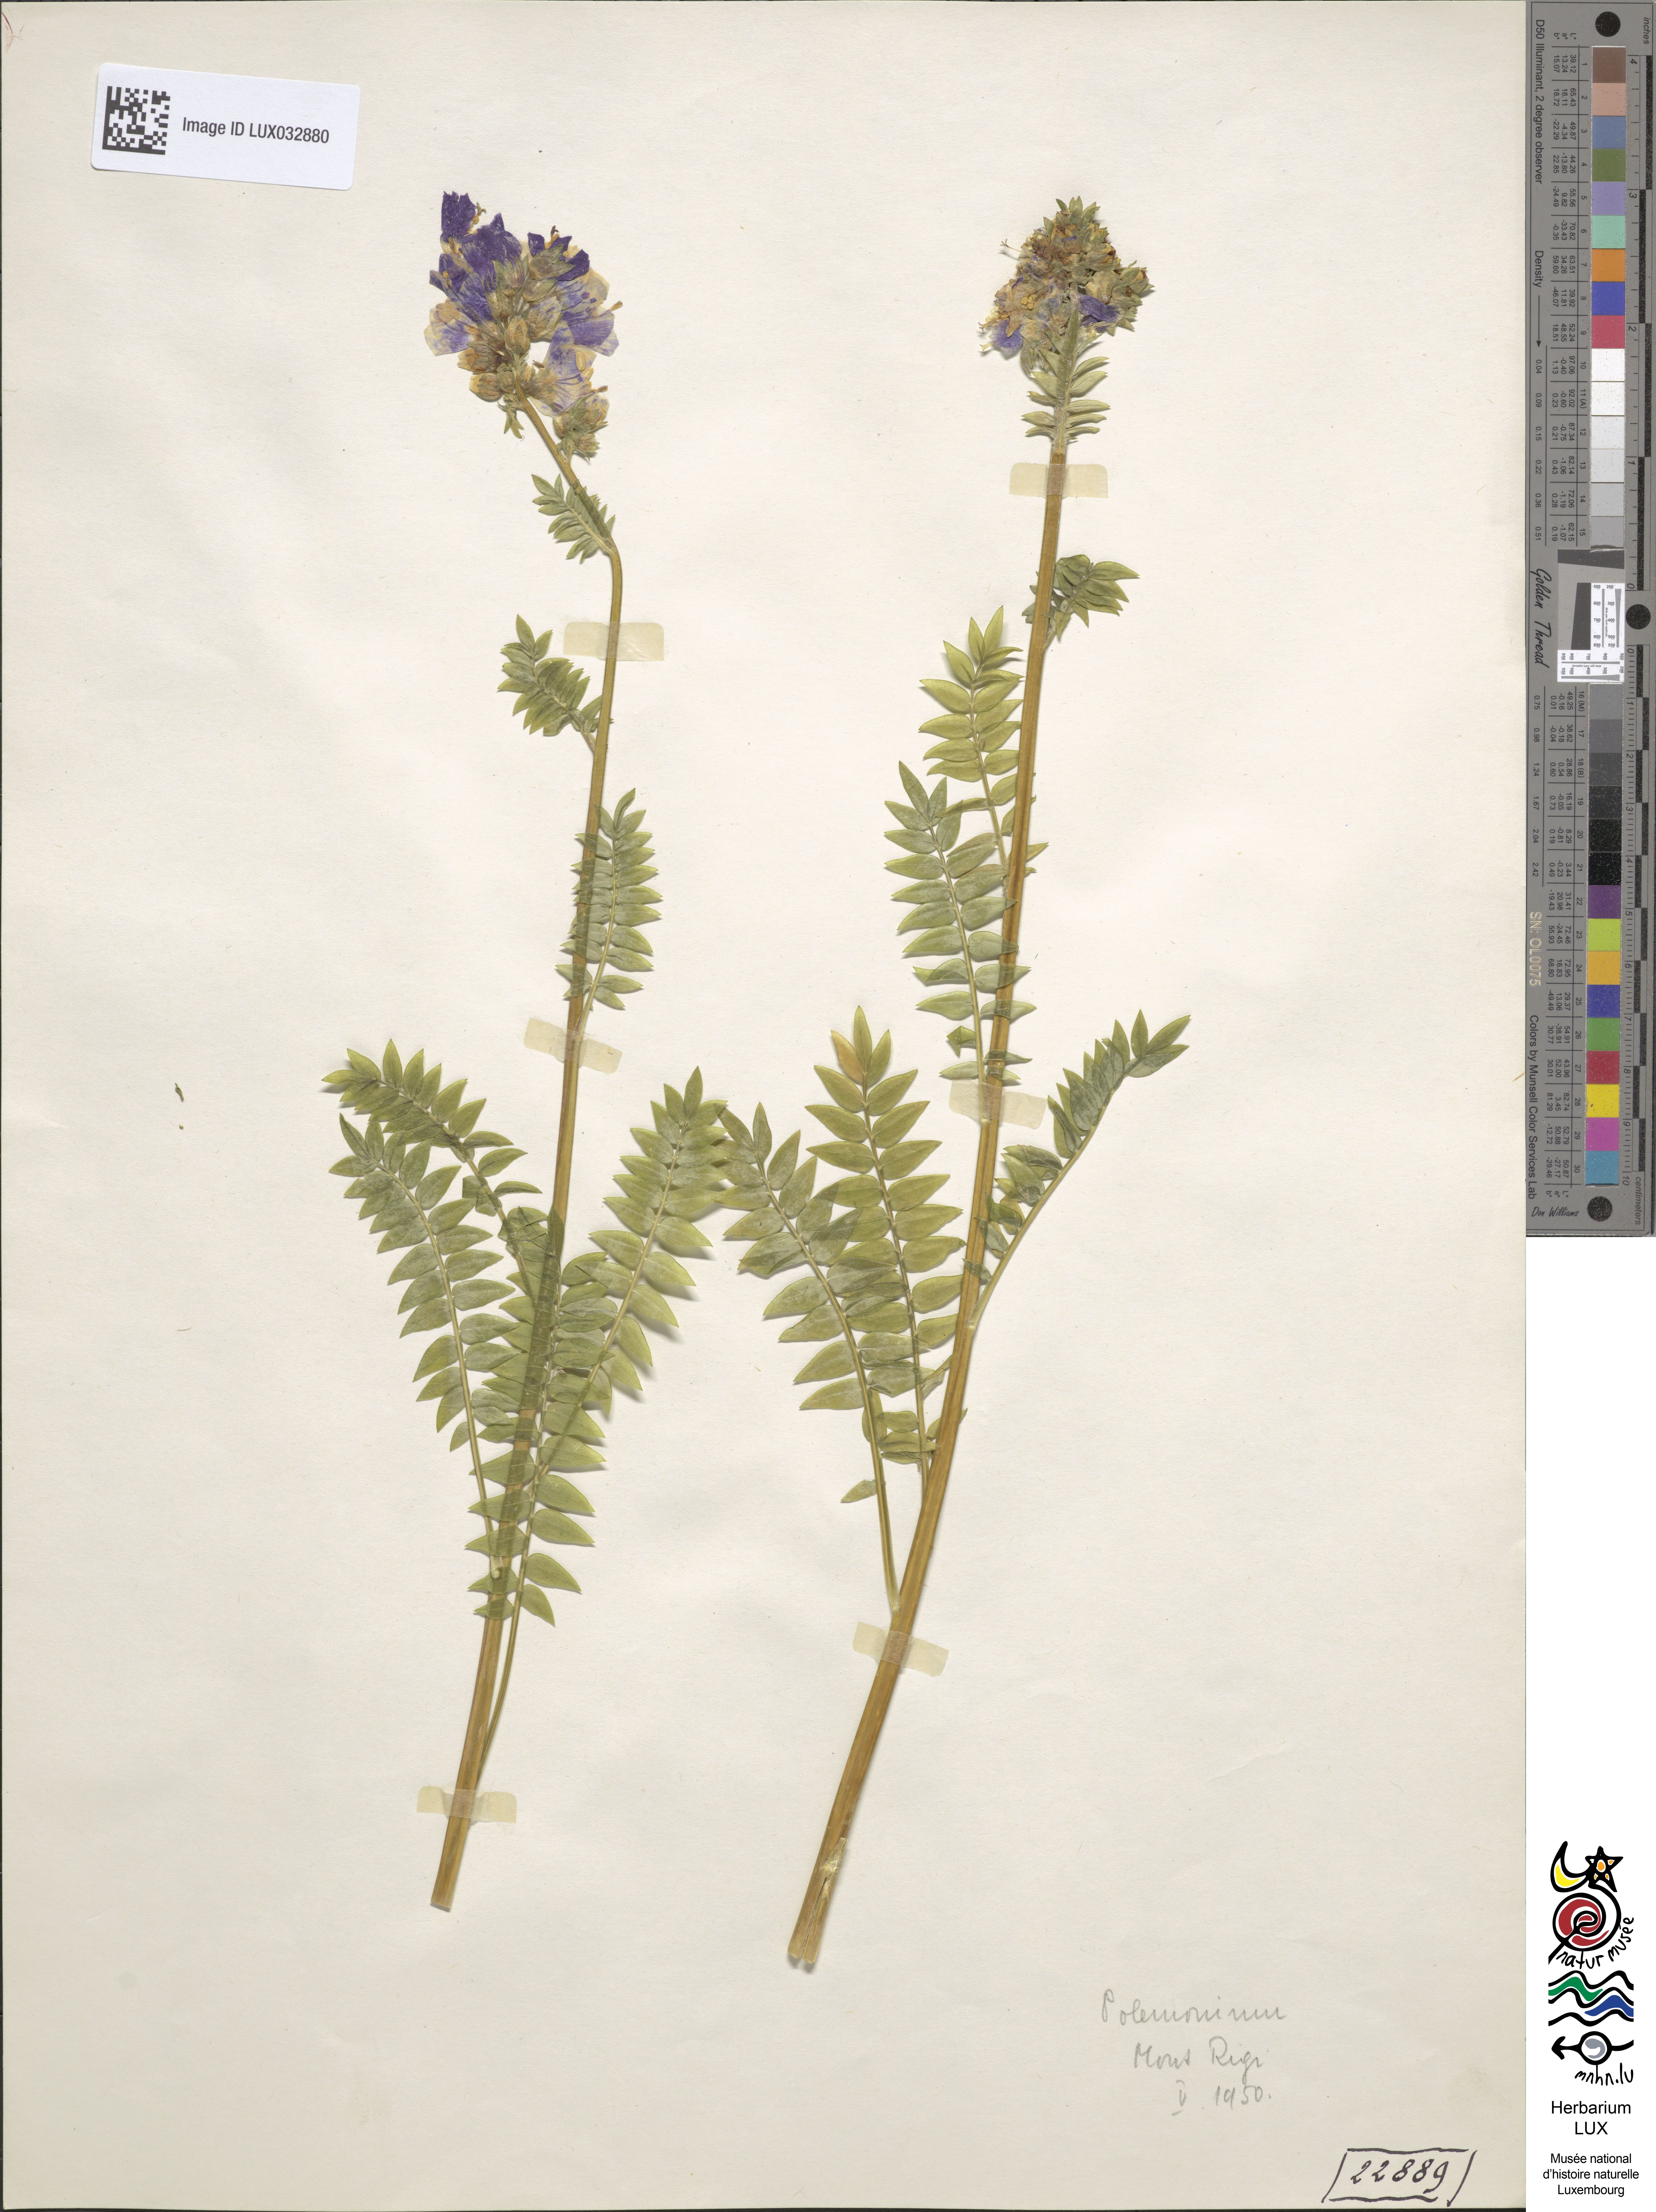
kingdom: Plantae
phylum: Tracheophyta
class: Magnoliopsida
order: Ericales
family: Polemoniaceae
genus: Polemonium
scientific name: Polemonium
